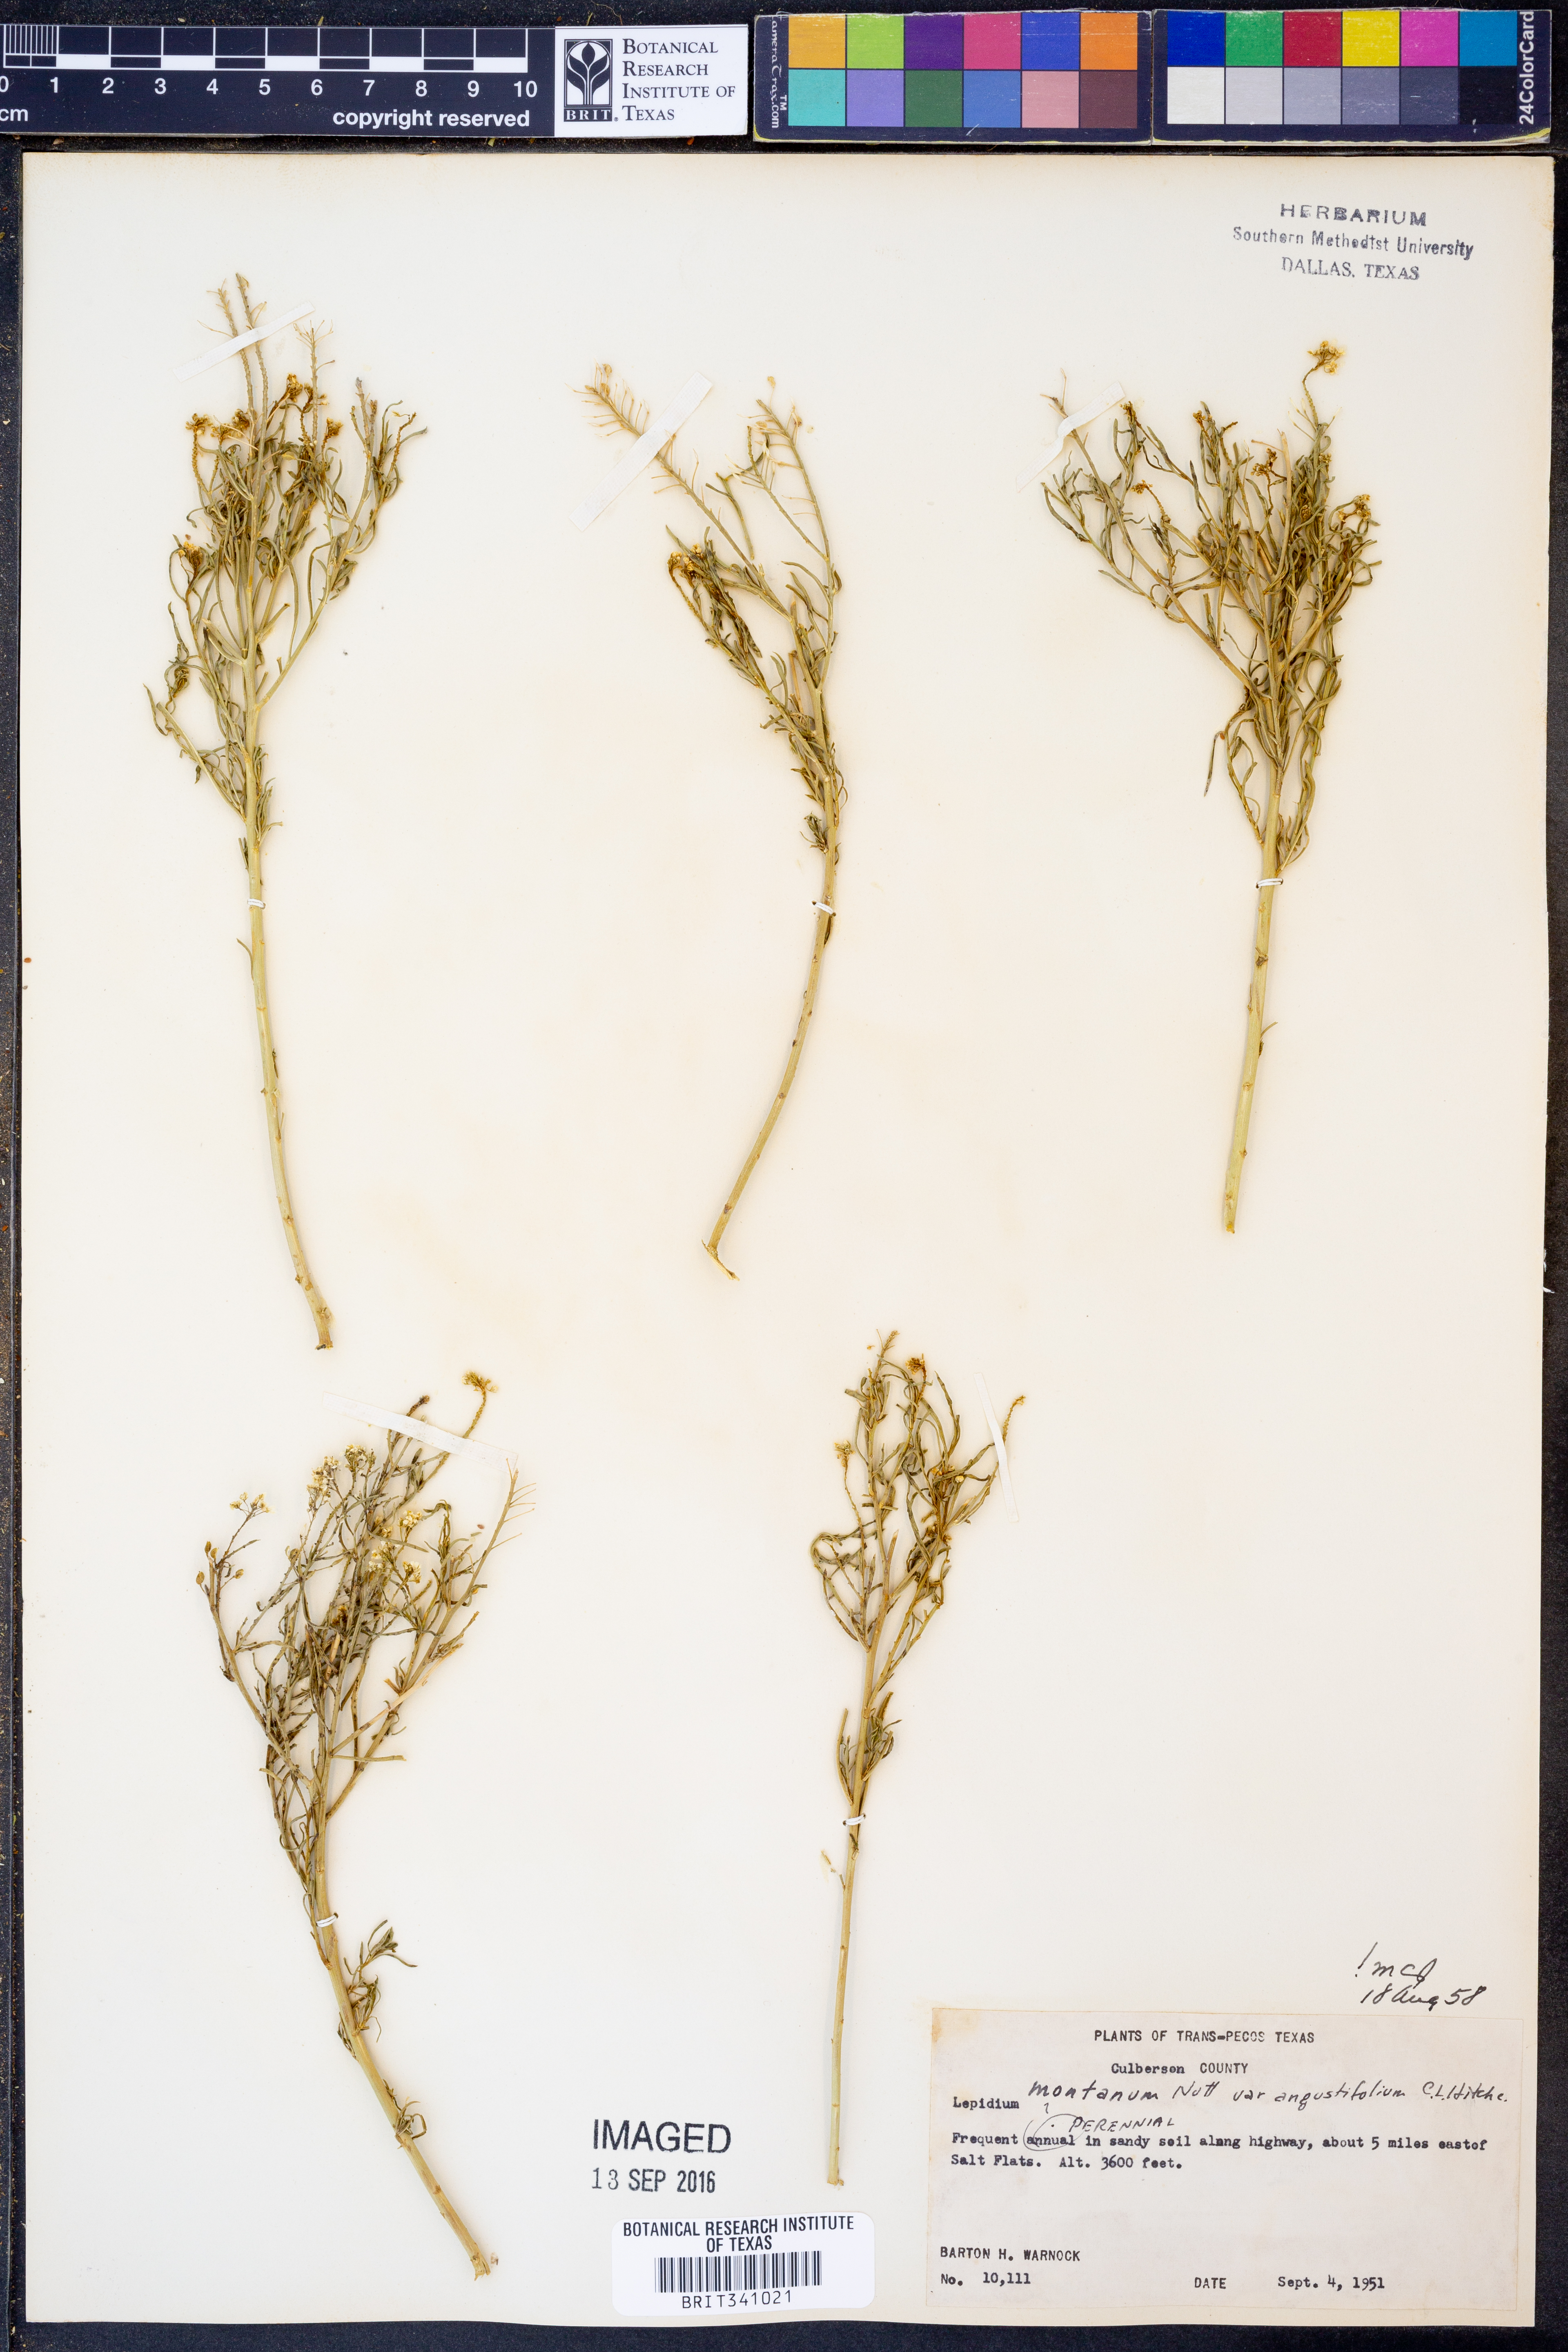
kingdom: Plantae
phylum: Tracheophyta
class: Magnoliopsida
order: Brassicales
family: Brassicaceae
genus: Lepidium
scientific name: Lepidium alyssoides
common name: Mesa pepperweed
